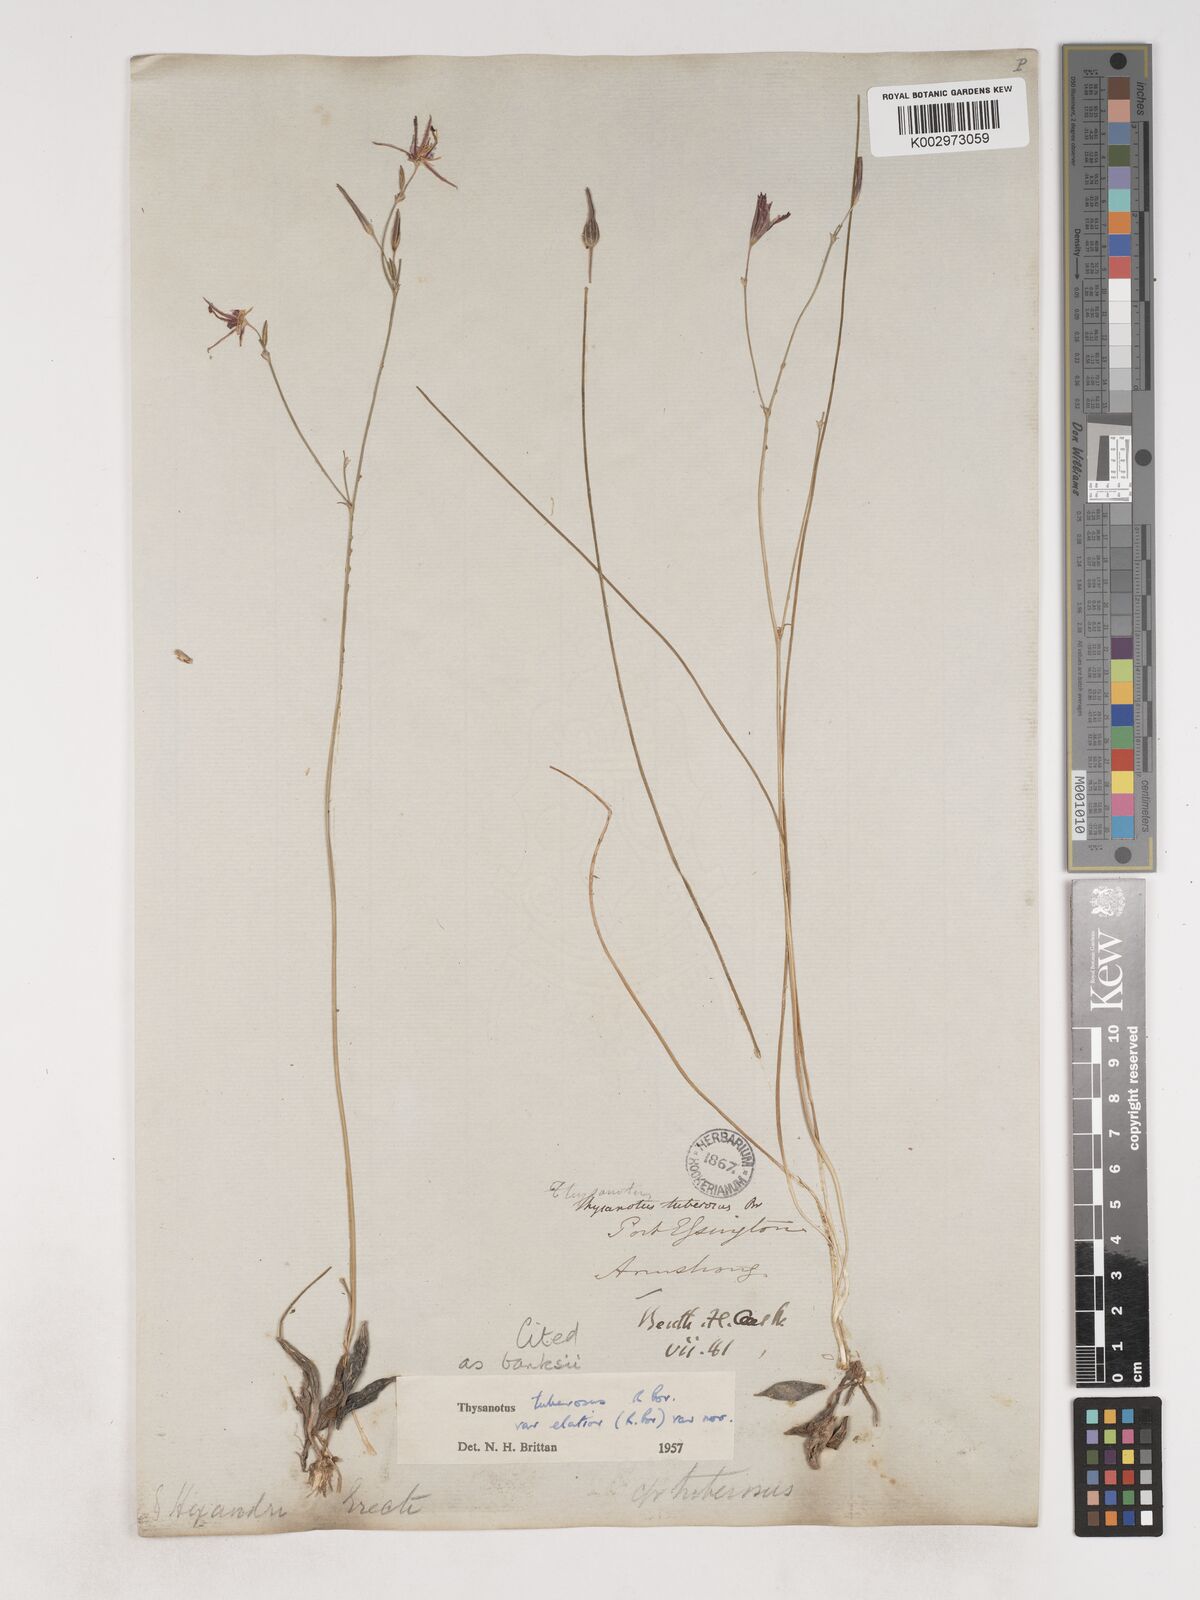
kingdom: Plantae
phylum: Tracheophyta
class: Liliopsida
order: Asparagales
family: Asparagaceae
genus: Thysanotus
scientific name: Thysanotus banksii
